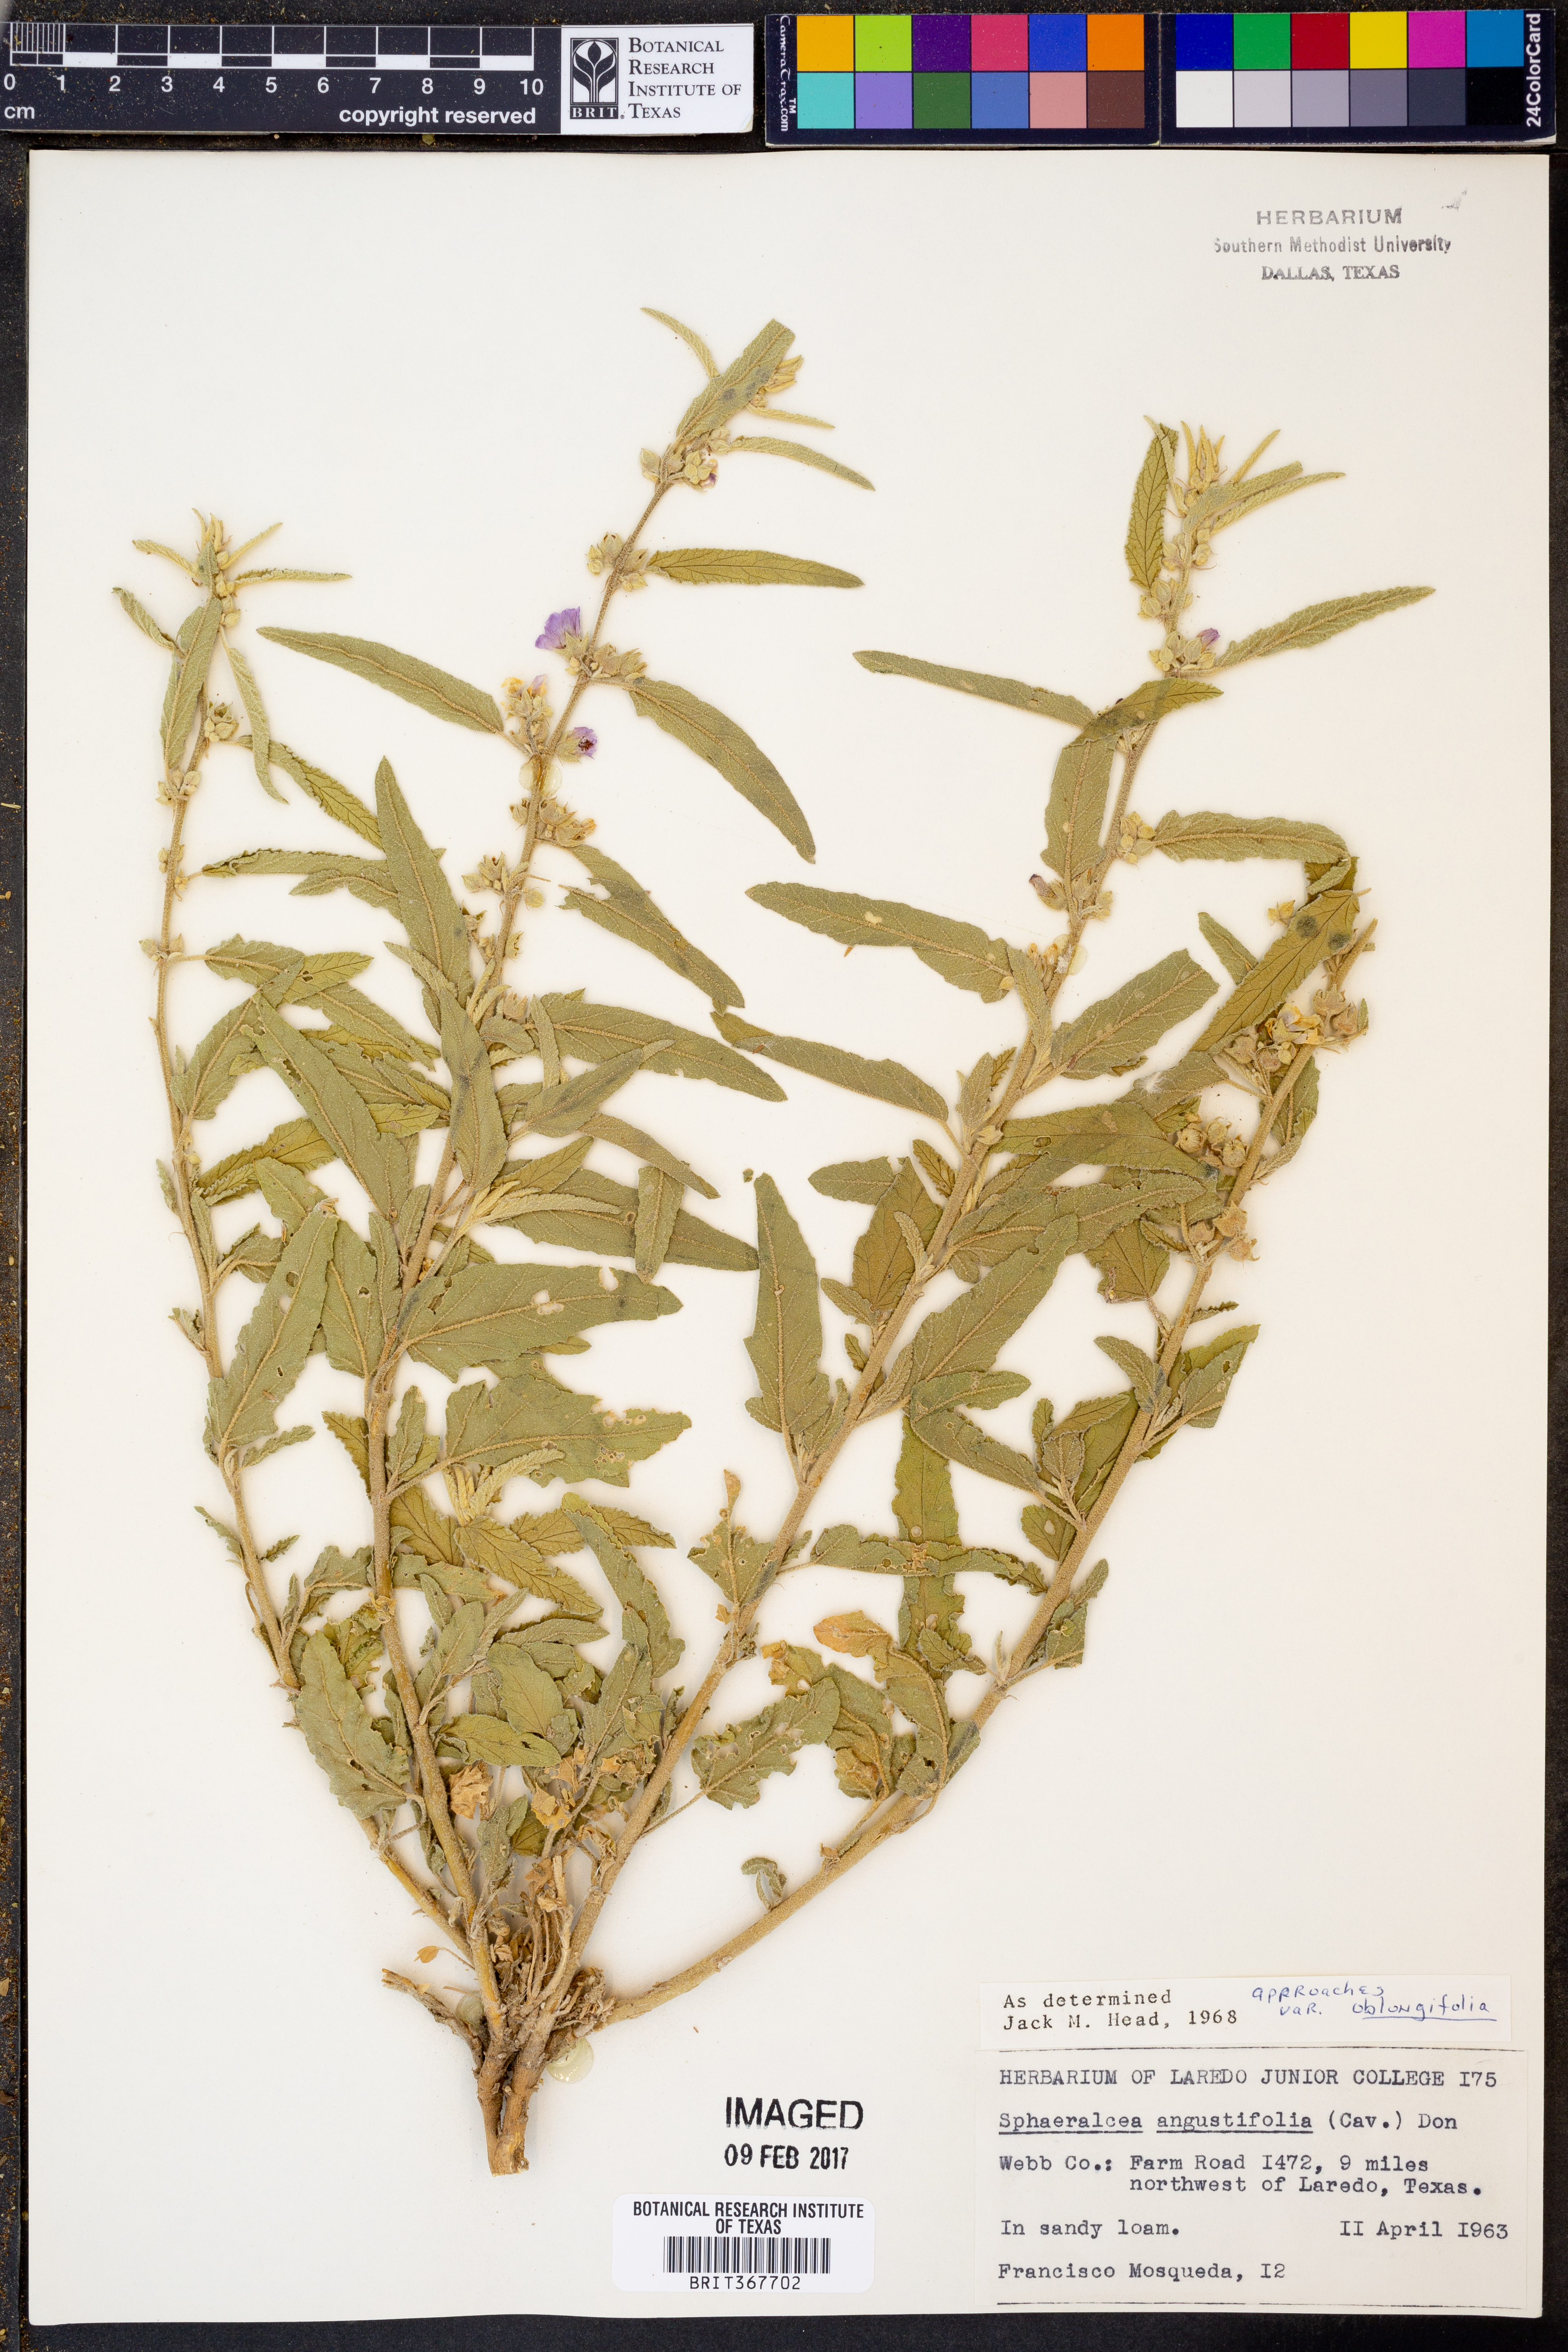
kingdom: Plantae
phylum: Tracheophyta
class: Magnoliopsida
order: Malvales
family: Malvaceae
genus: Sphaeralcea
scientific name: Sphaeralcea angustifolia
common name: Copper globe-mallow
